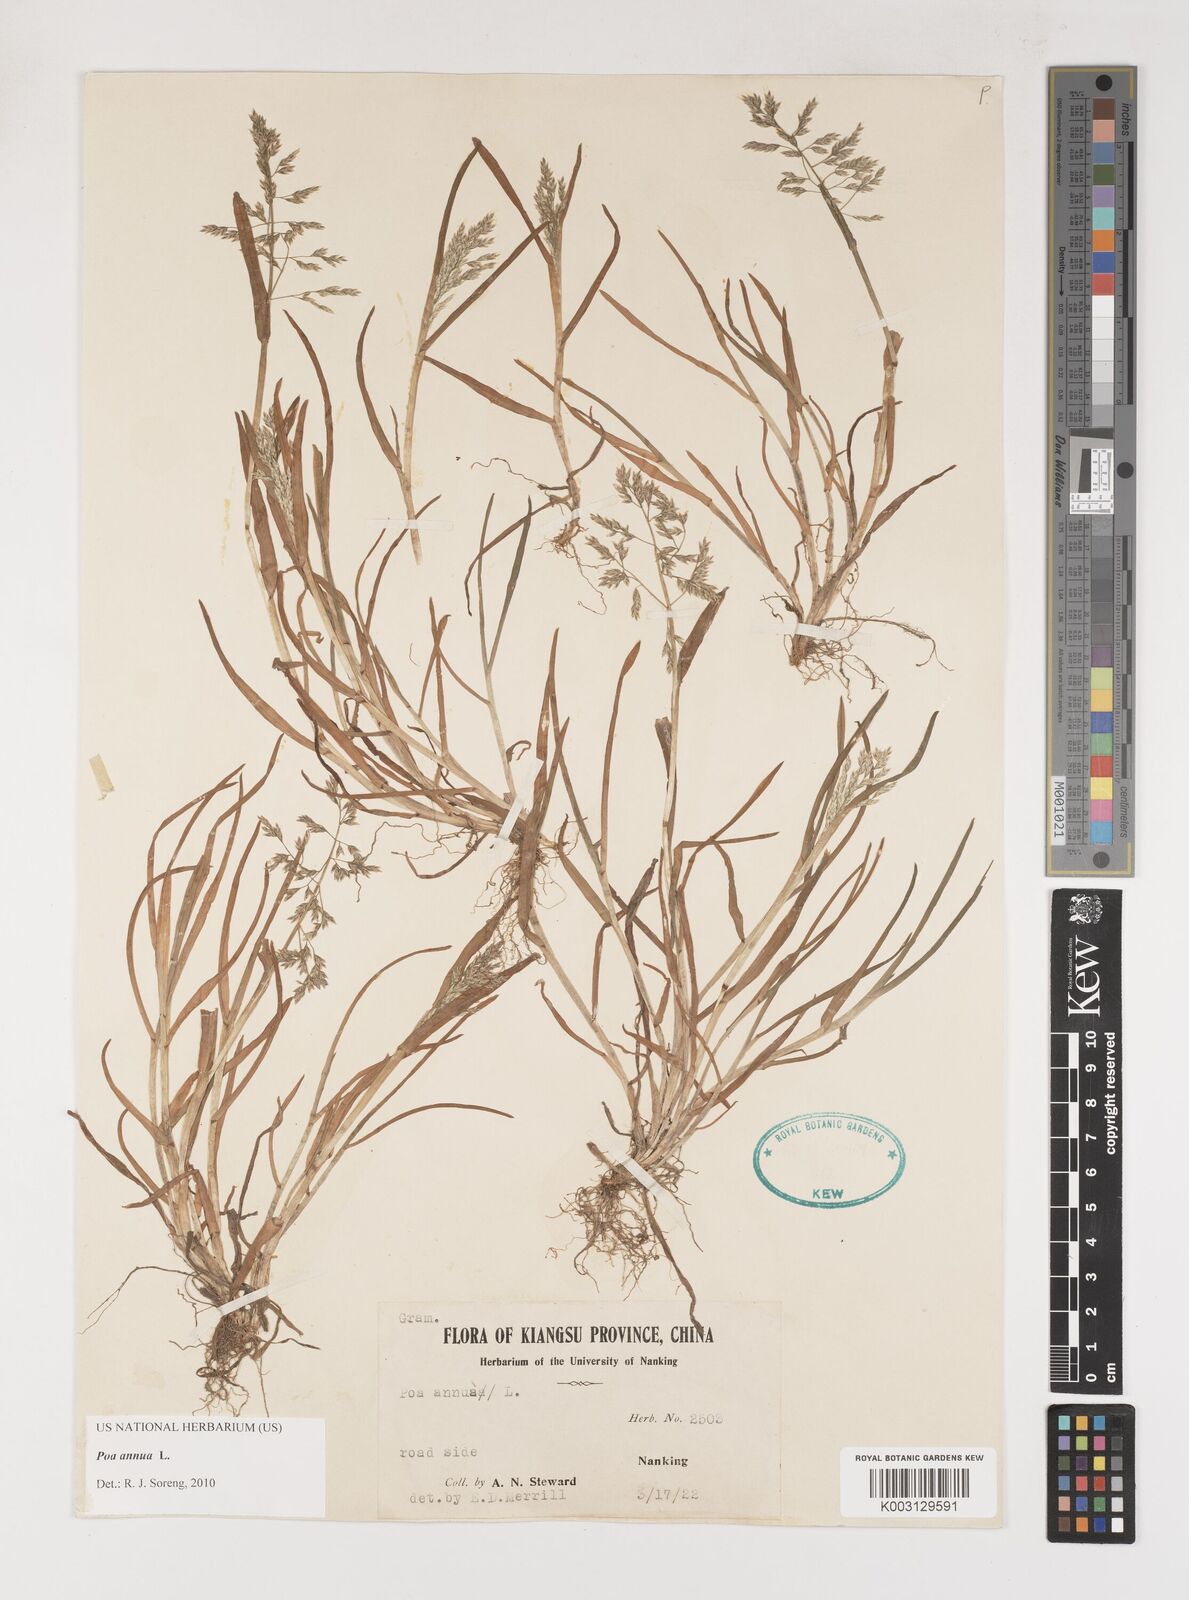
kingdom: Plantae
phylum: Tracheophyta
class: Liliopsida
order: Poales
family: Poaceae
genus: Poa
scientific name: Poa annua
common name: Annual bluegrass
